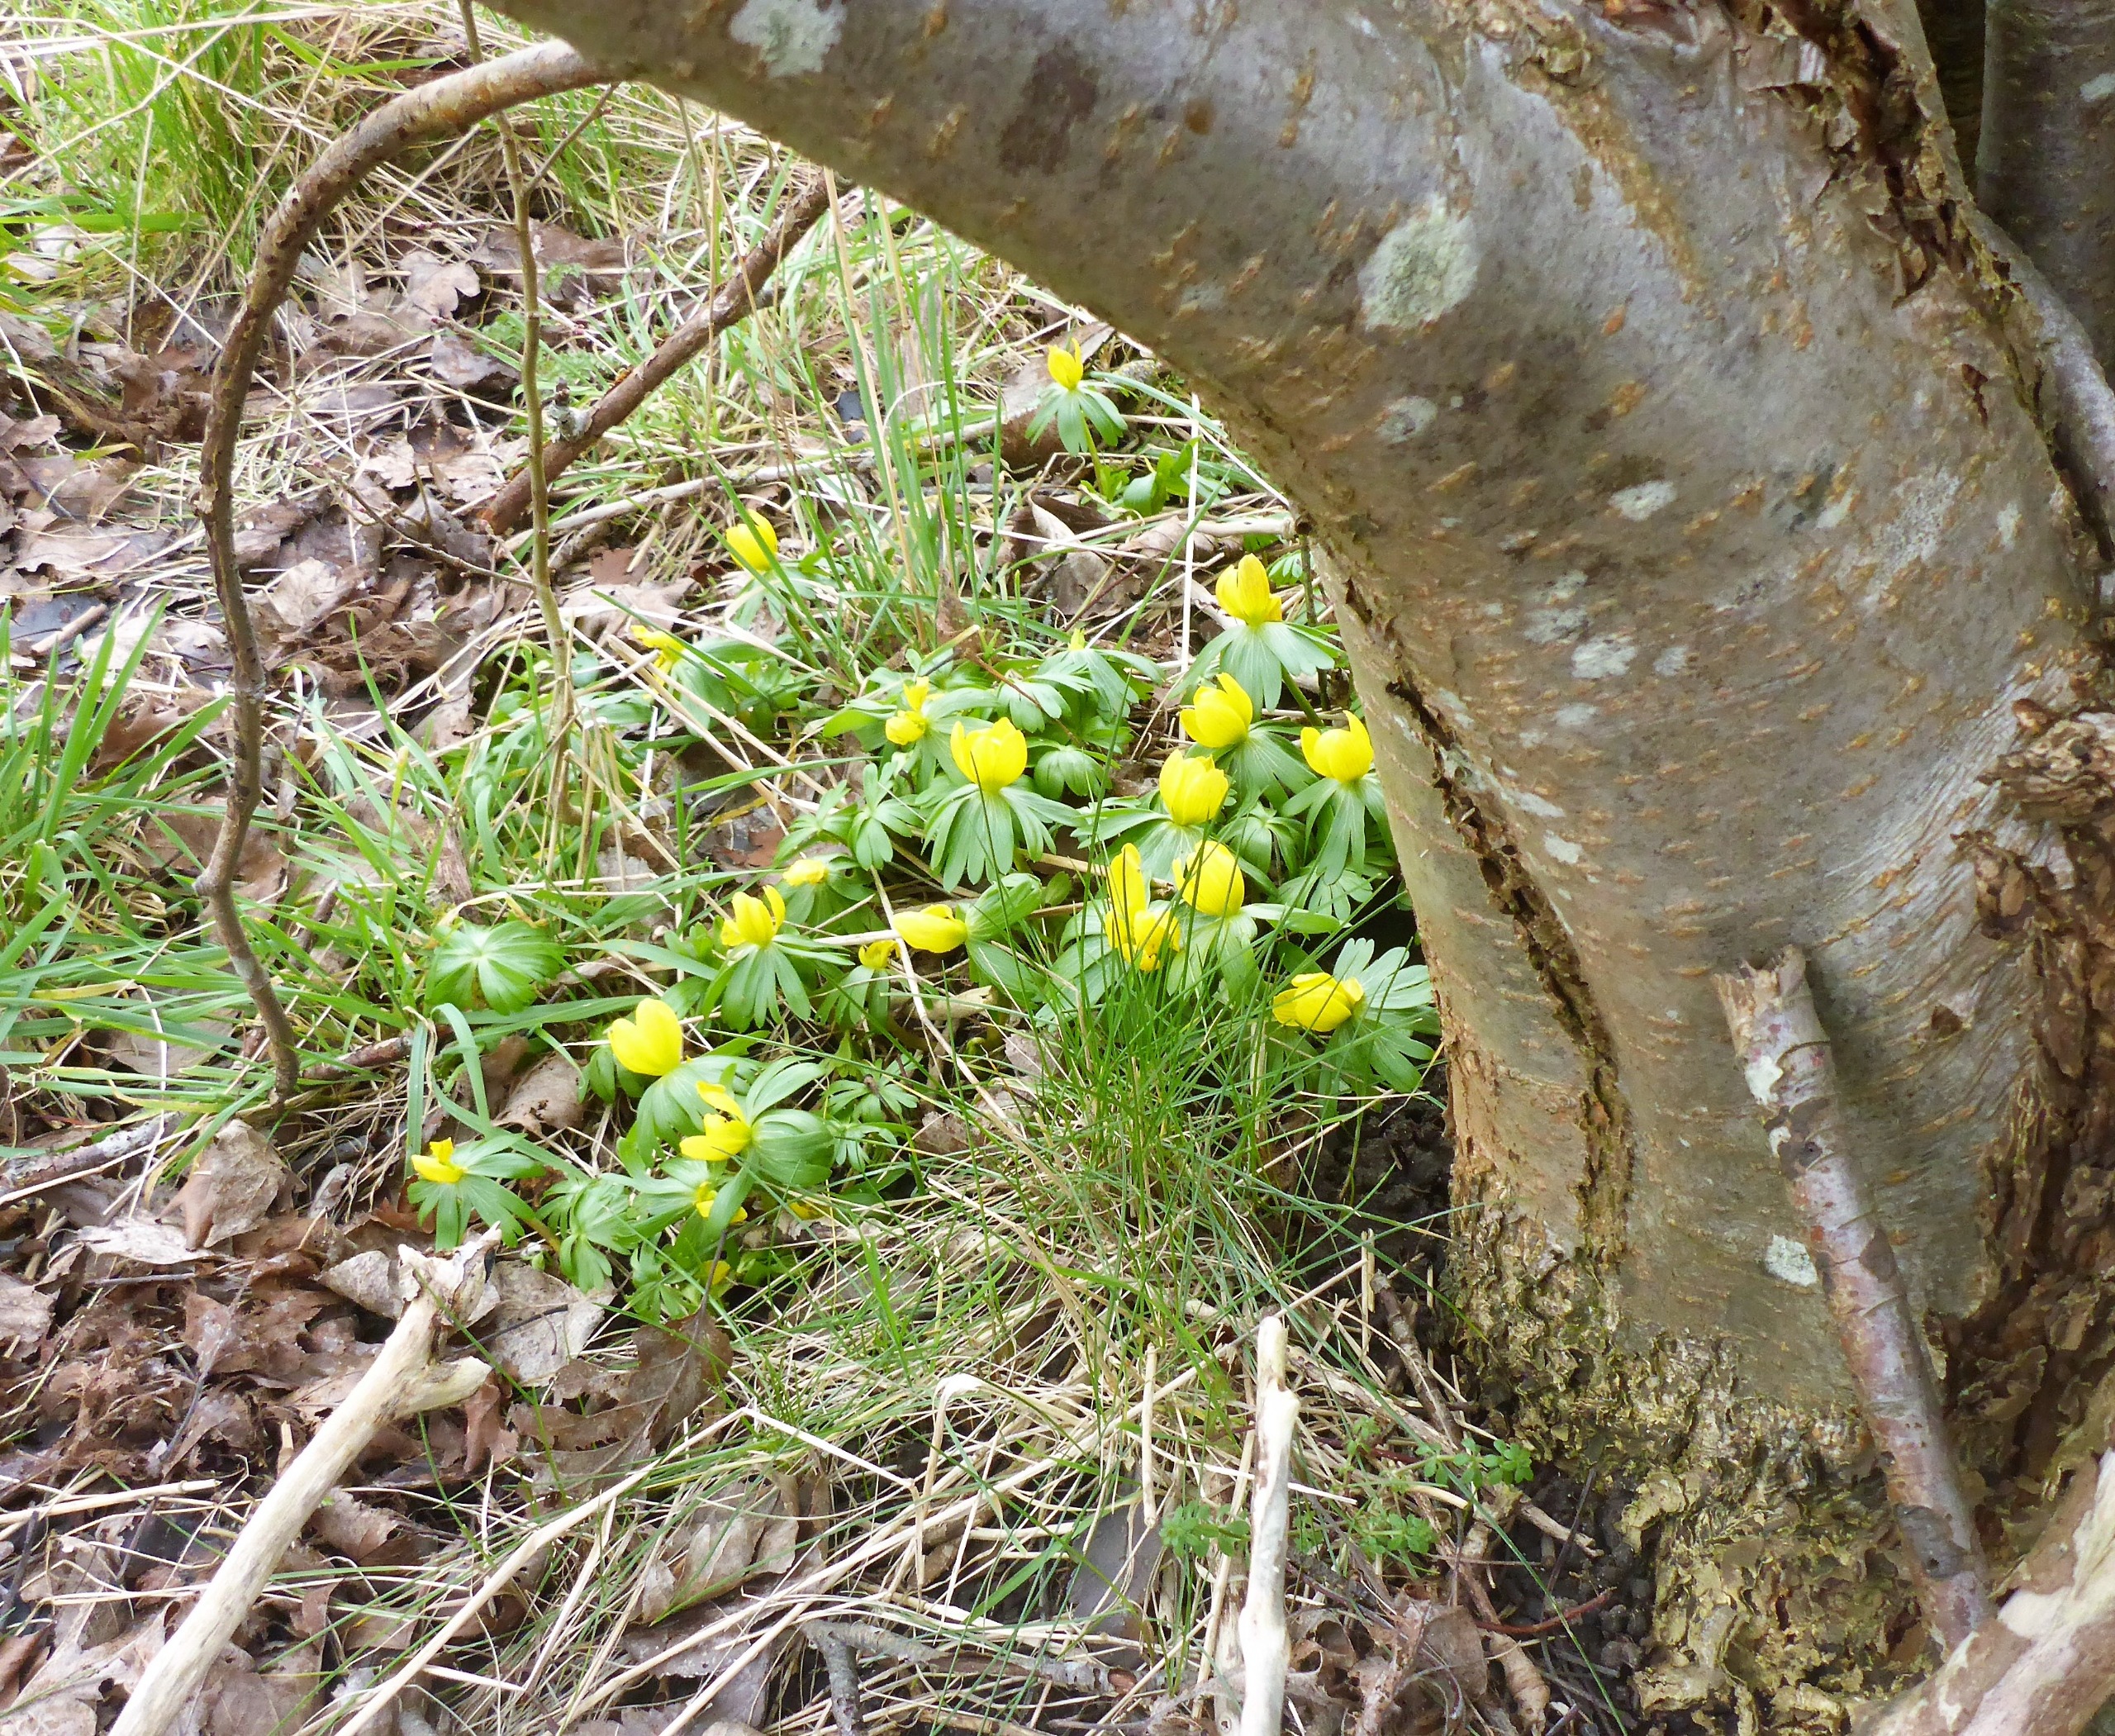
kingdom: Plantae
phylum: Tracheophyta
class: Magnoliopsida
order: Ranunculales
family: Ranunculaceae
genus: Eranthis
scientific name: Eranthis hyemalis
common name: Erantis
